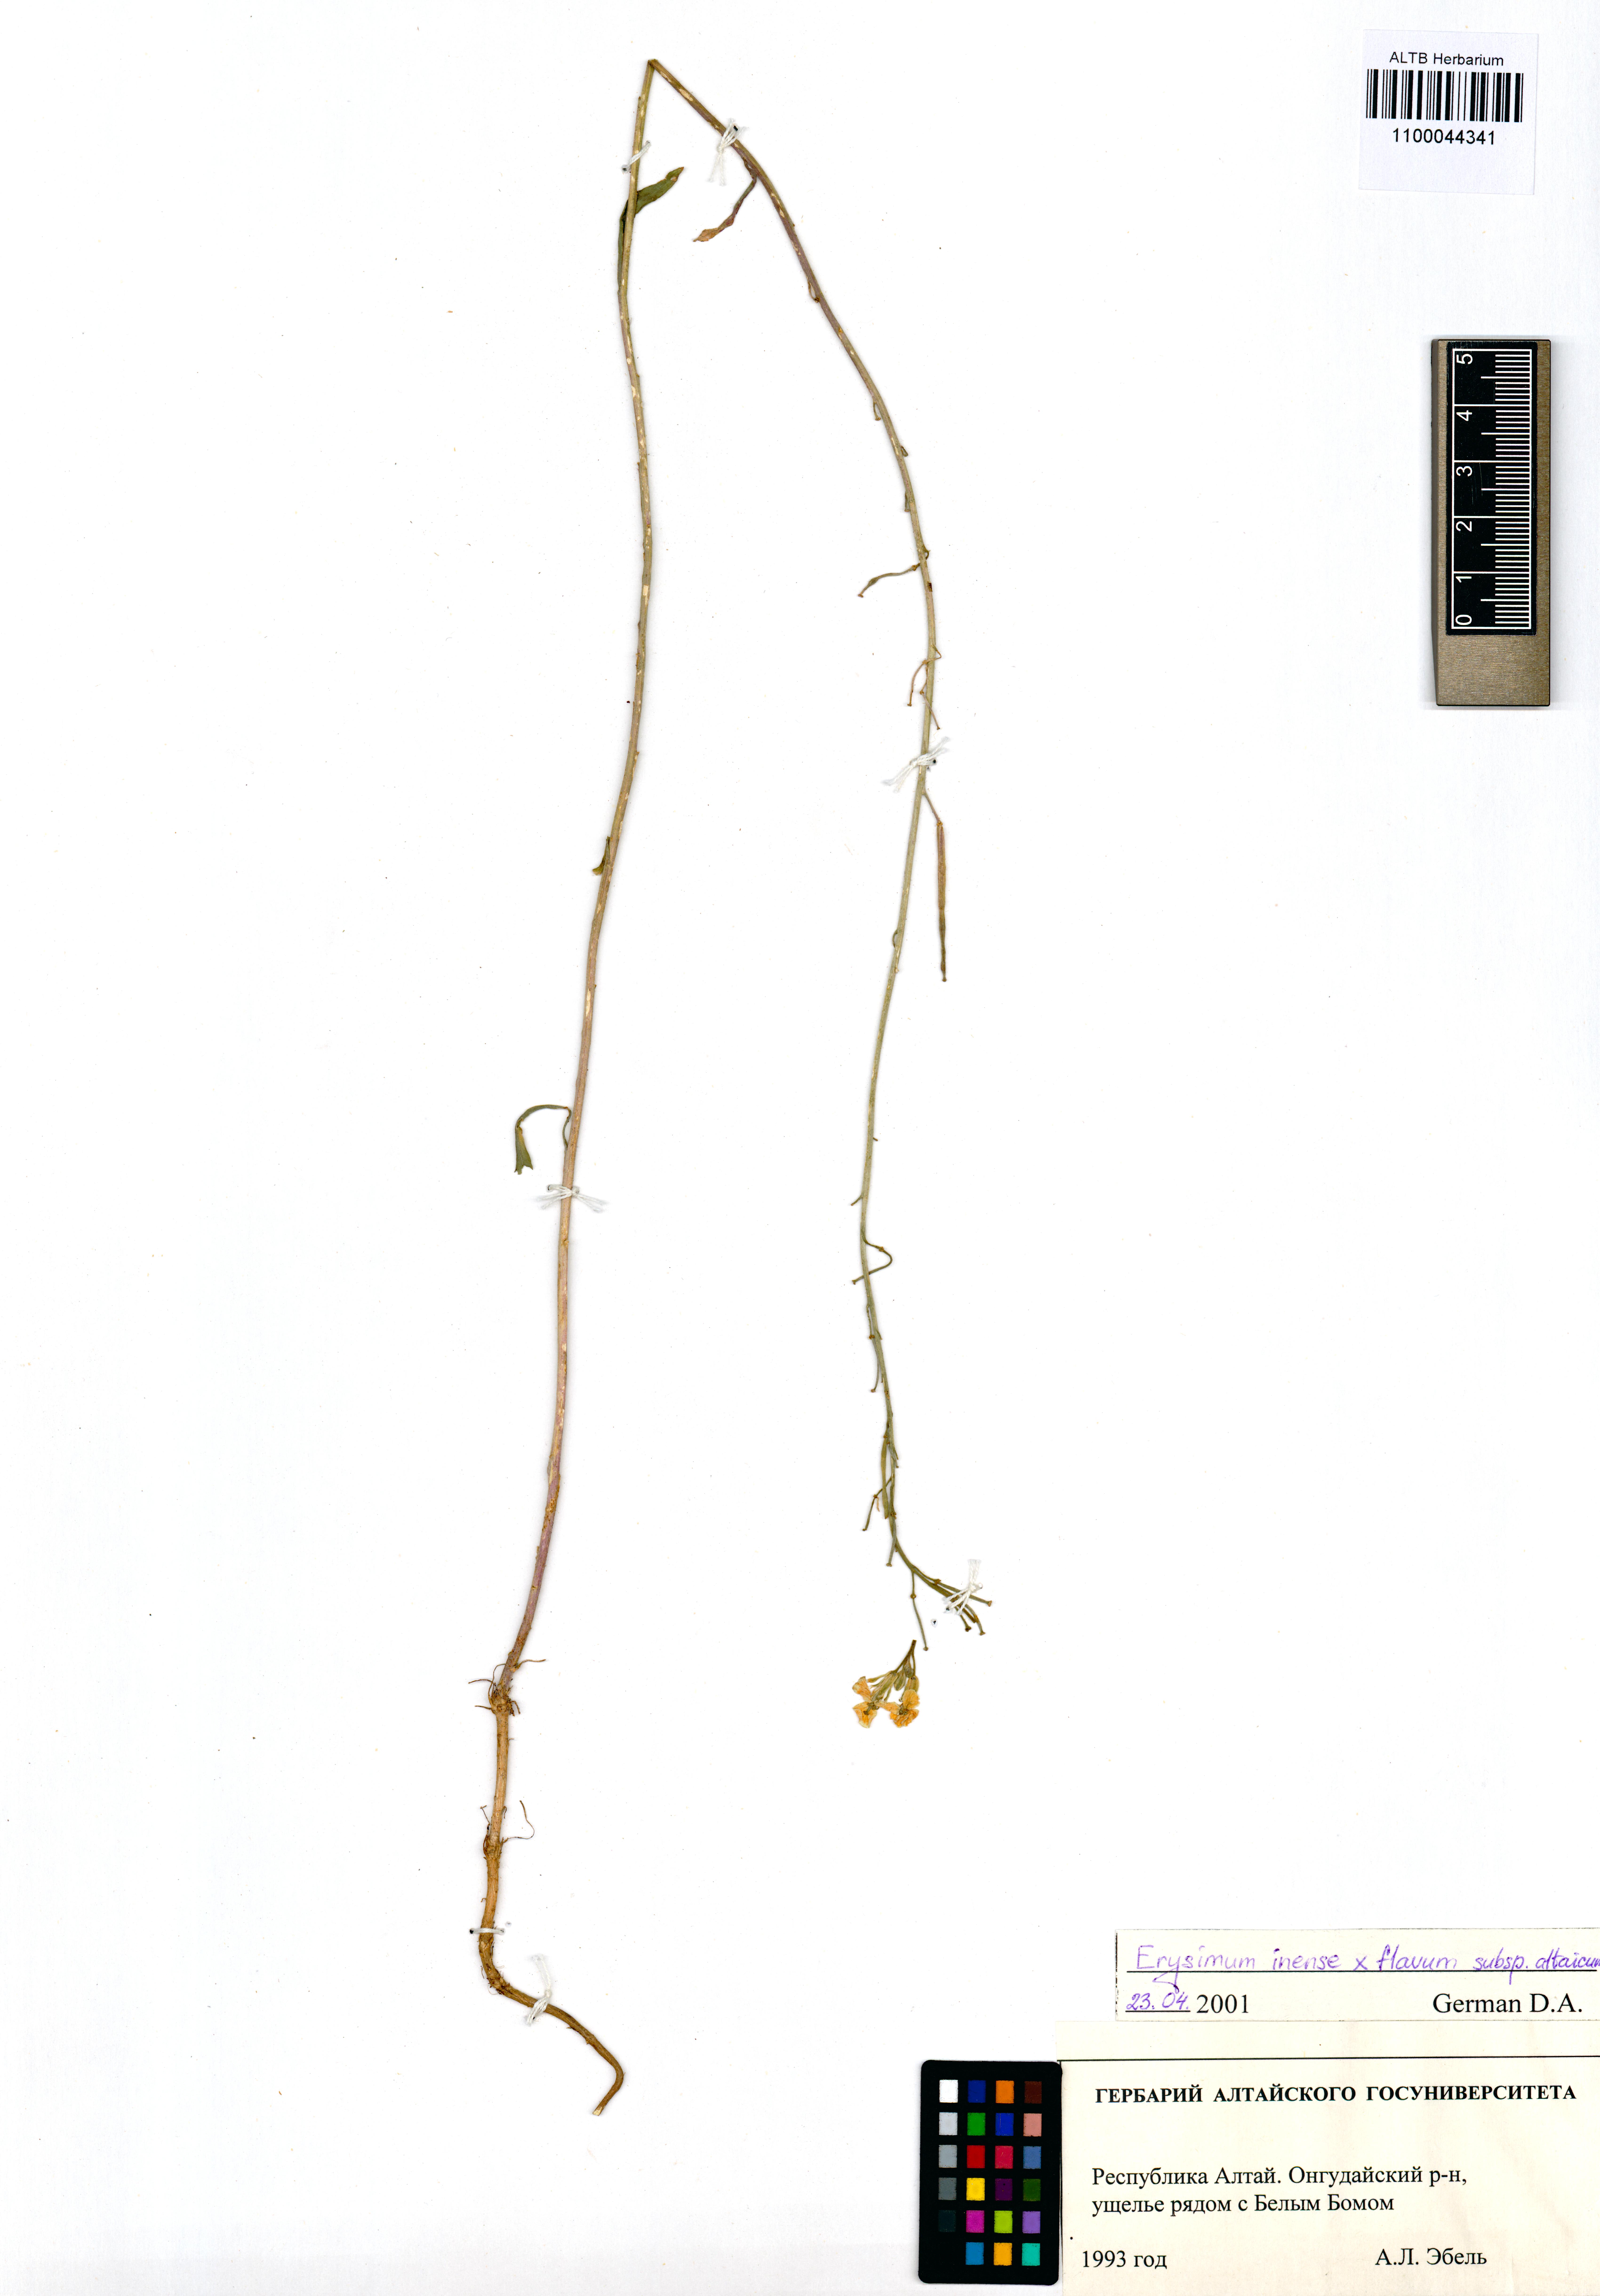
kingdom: Plantae
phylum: Tracheophyta
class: Magnoliopsida
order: Brassicales
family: Brassicaceae
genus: Erysimum
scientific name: Erysimum inense
